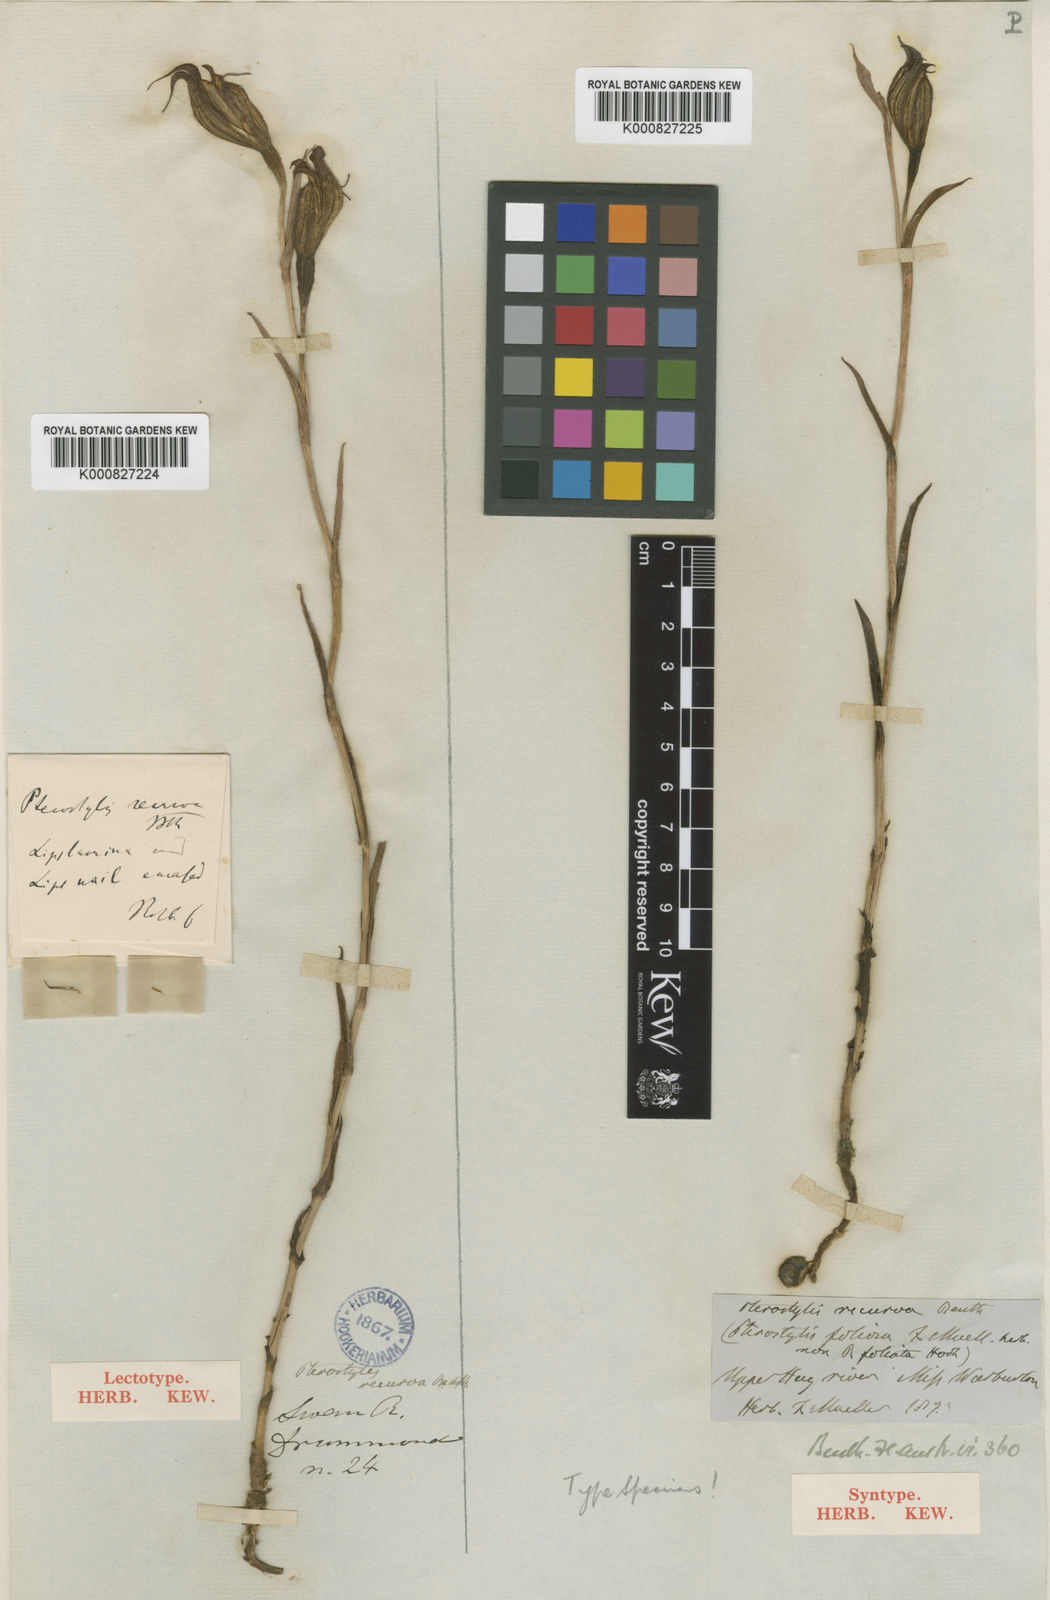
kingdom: Plantae
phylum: Tracheophyta
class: Liliopsida
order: Asparagales
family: Orchidaceae
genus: Pterostylis
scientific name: Pterostylis recurva
